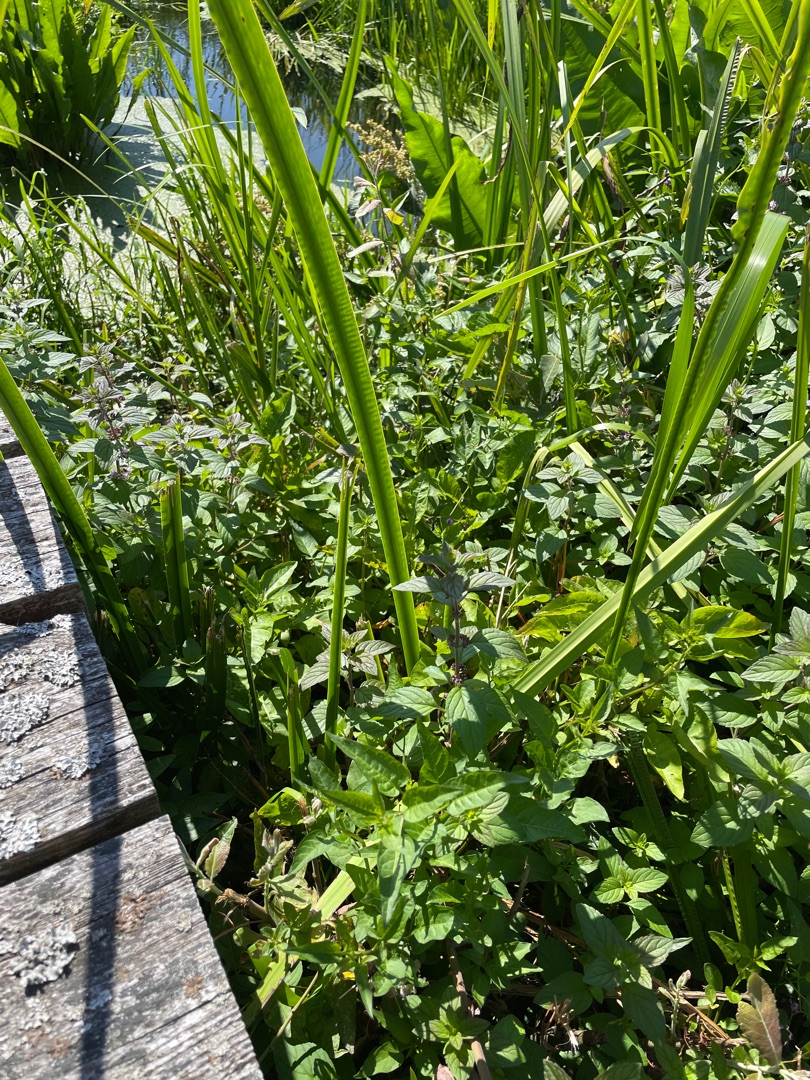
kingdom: Plantae
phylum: Tracheophyta
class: Magnoliopsida
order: Lamiales
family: Lamiaceae
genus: Mentha
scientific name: Mentha arvensis
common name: Ager-mynte
